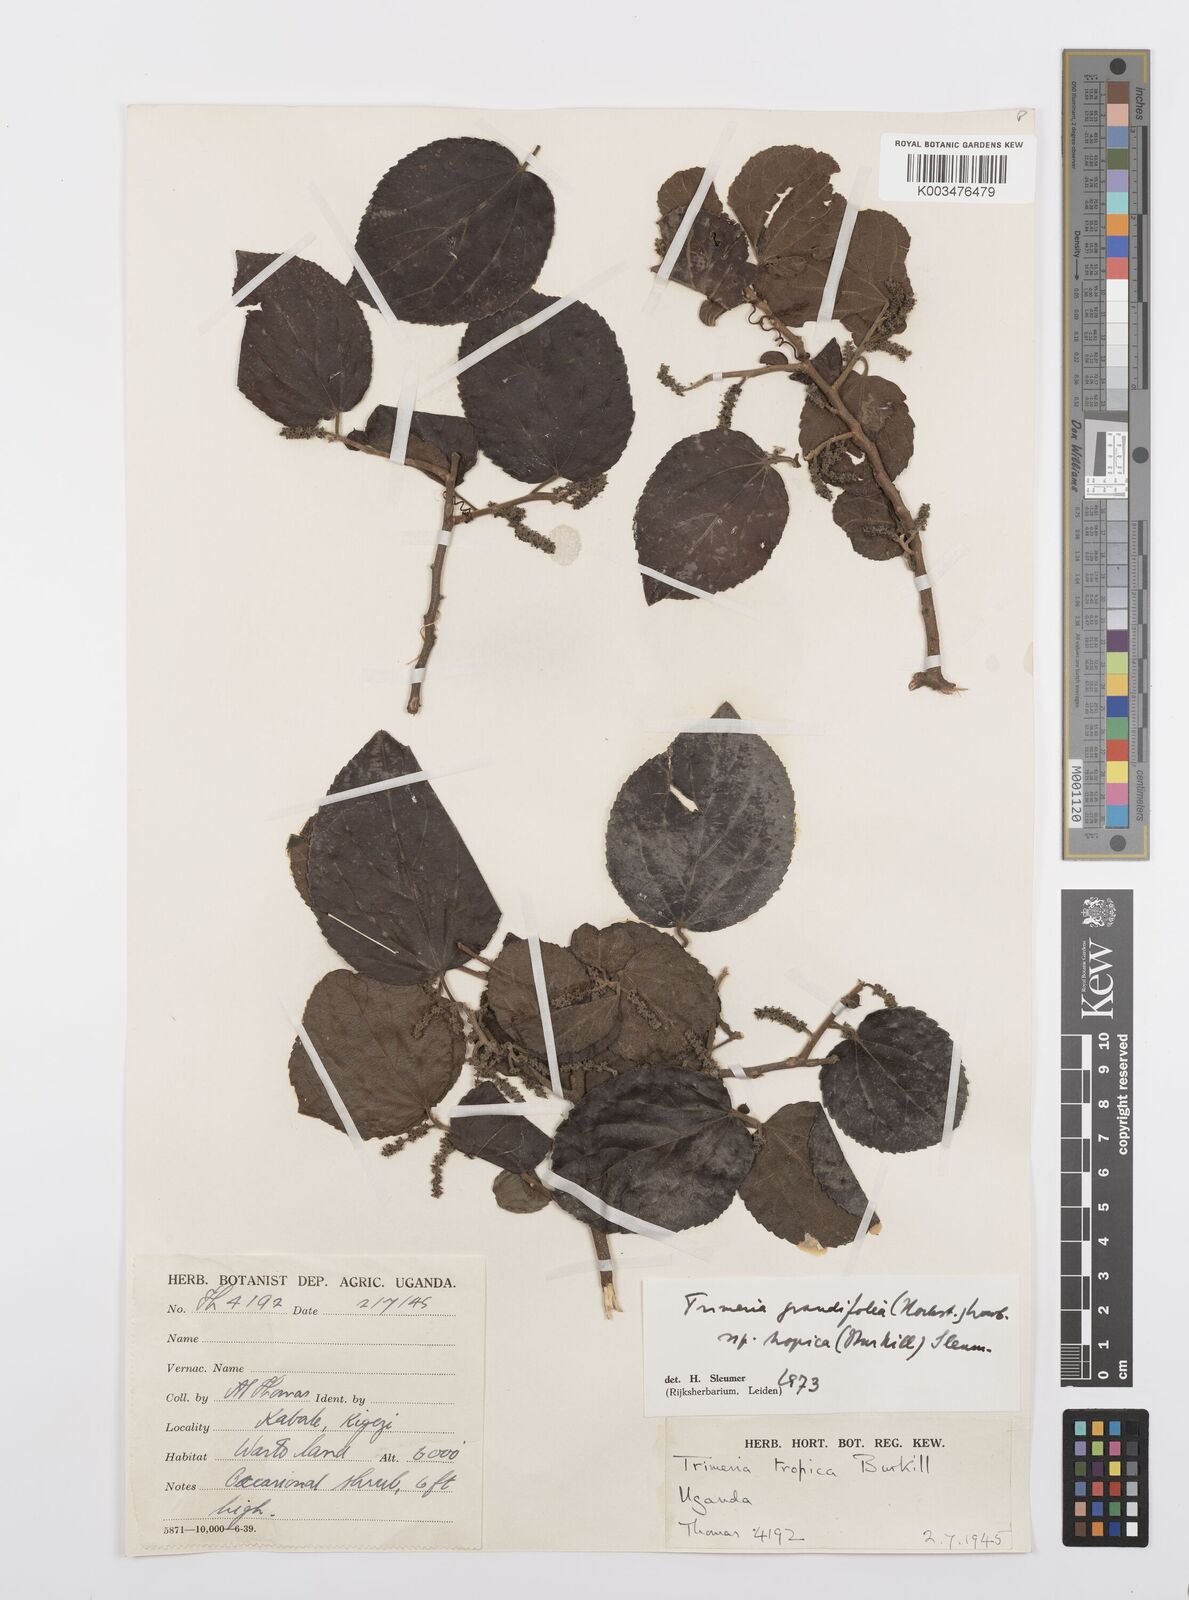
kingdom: Plantae
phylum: Tracheophyta
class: Magnoliopsida
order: Malpighiales
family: Salicaceae
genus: Trimeria
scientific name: Trimeria grandifolia
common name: Wild mulberry
